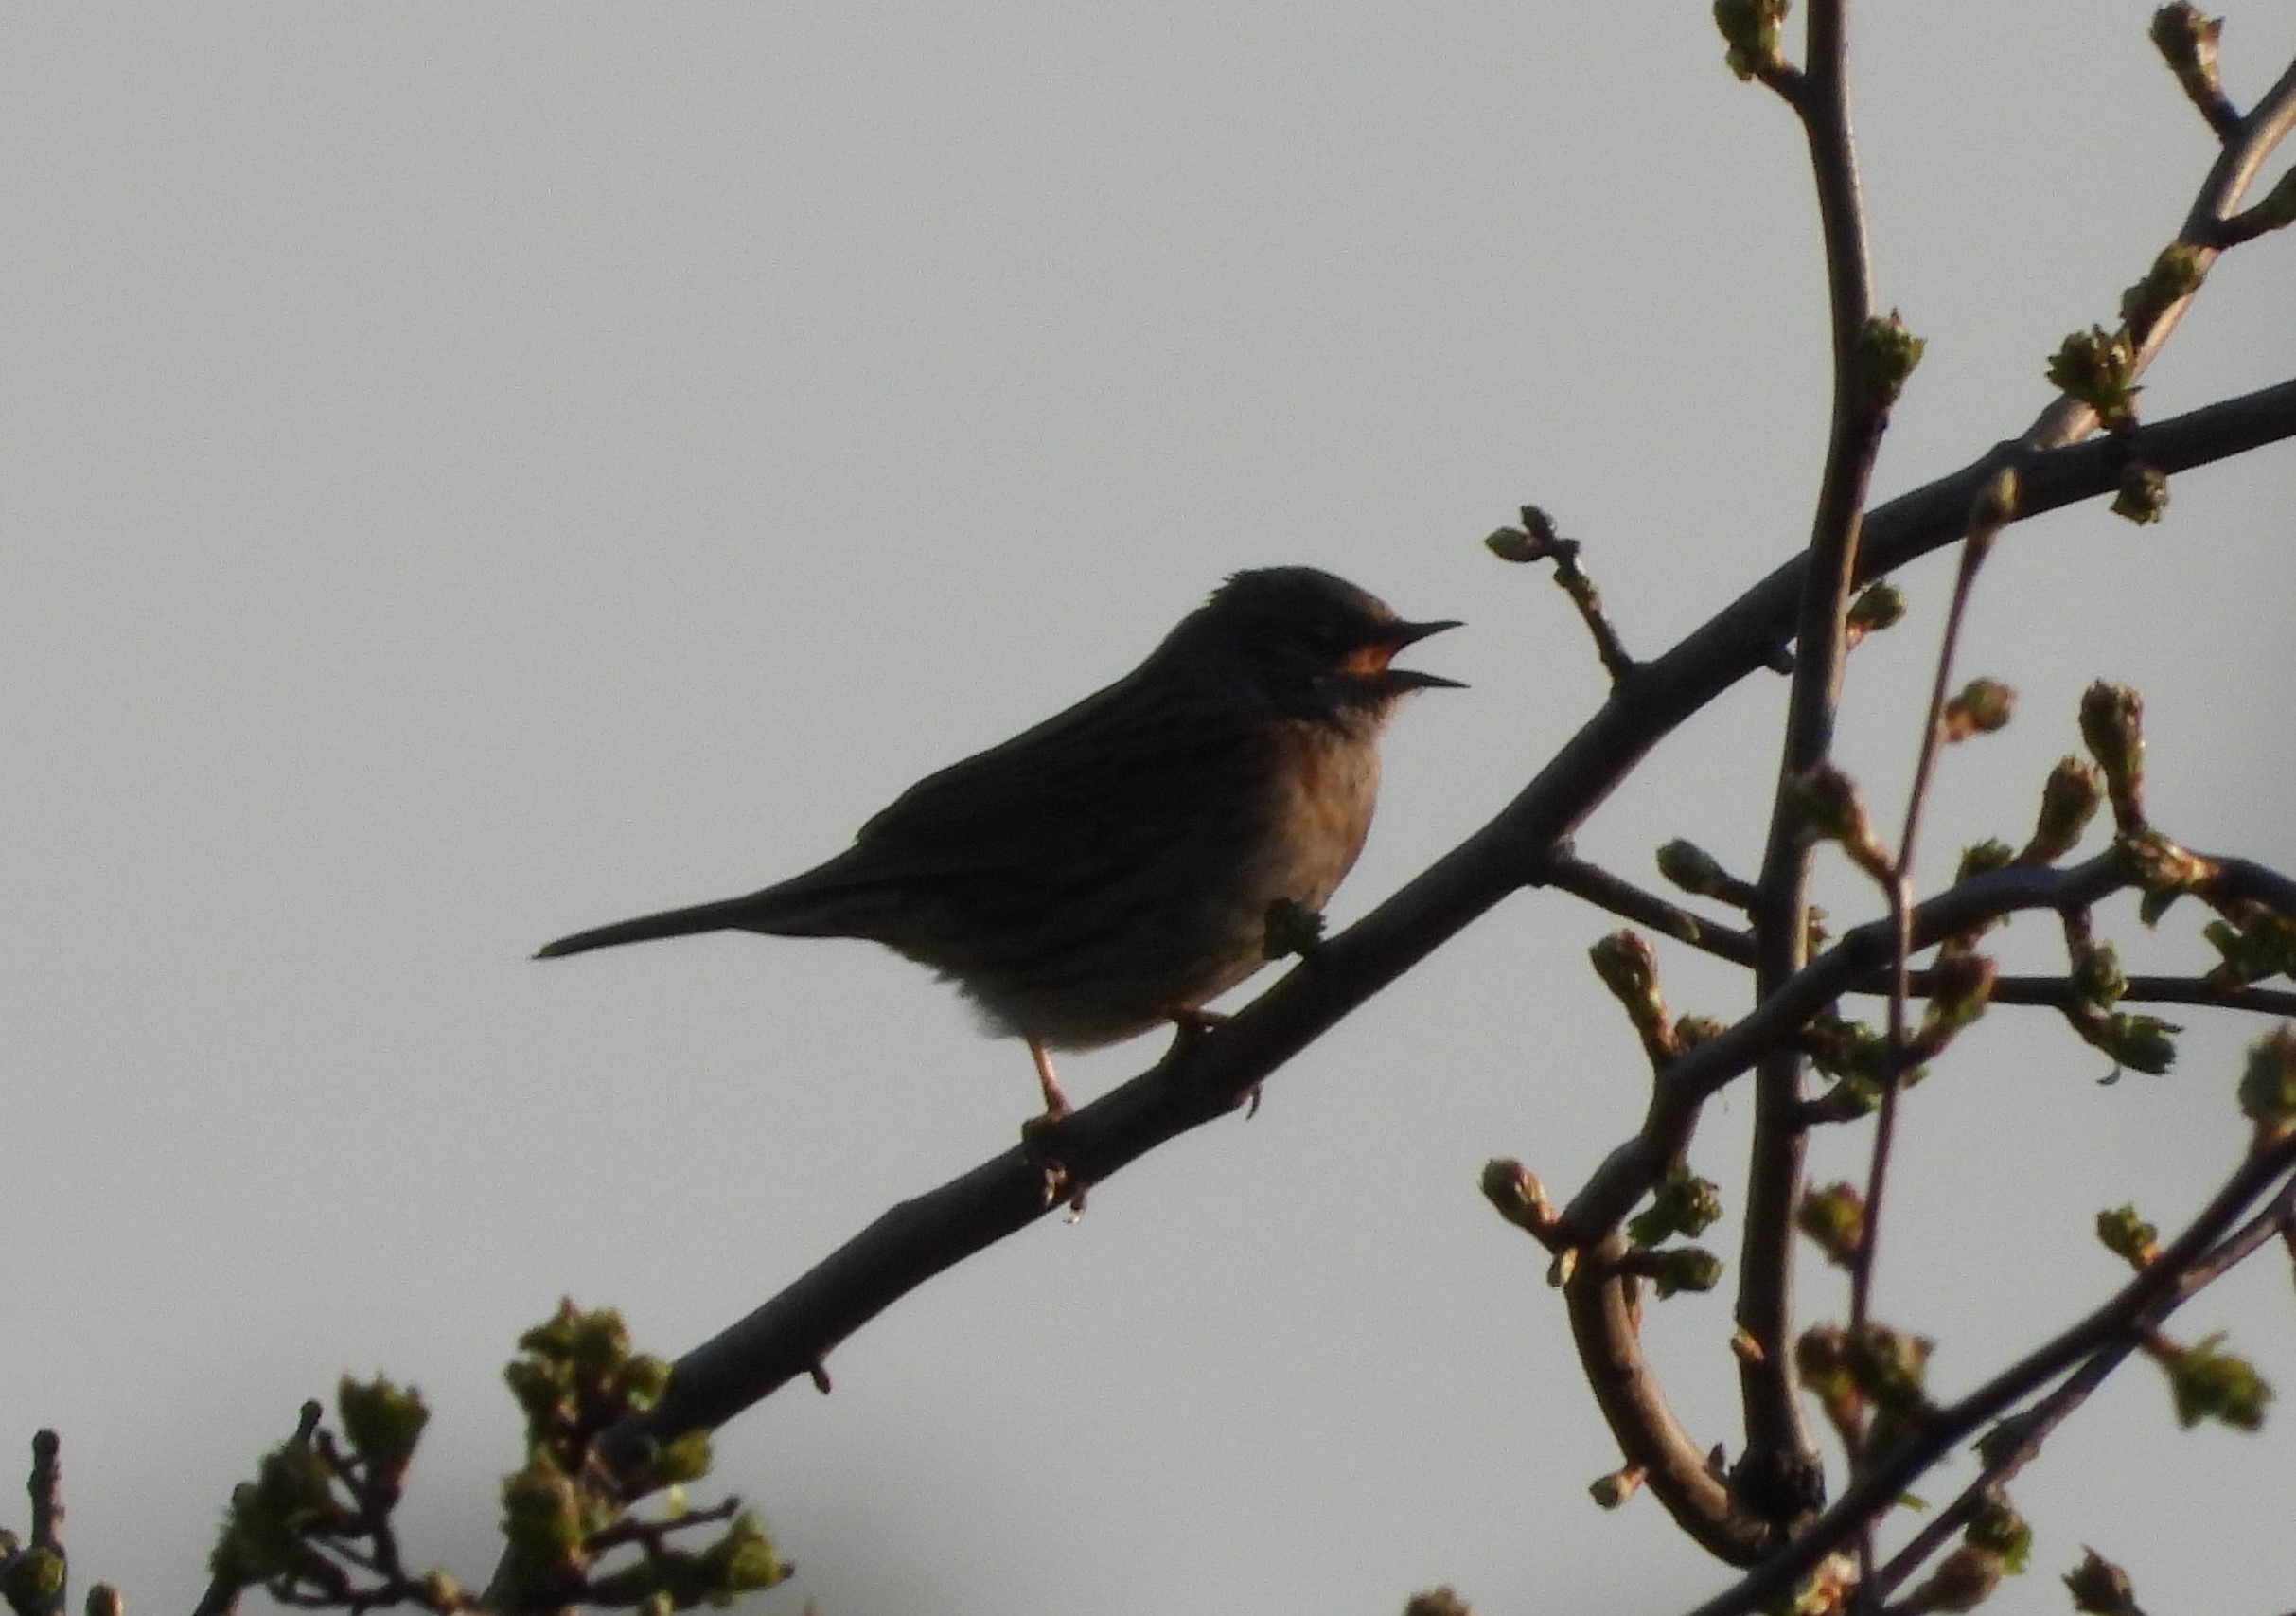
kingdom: Animalia
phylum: Chordata
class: Aves
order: Passeriformes
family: Prunellidae
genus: Prunella
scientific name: Prunella modularis
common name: Jernspurv
